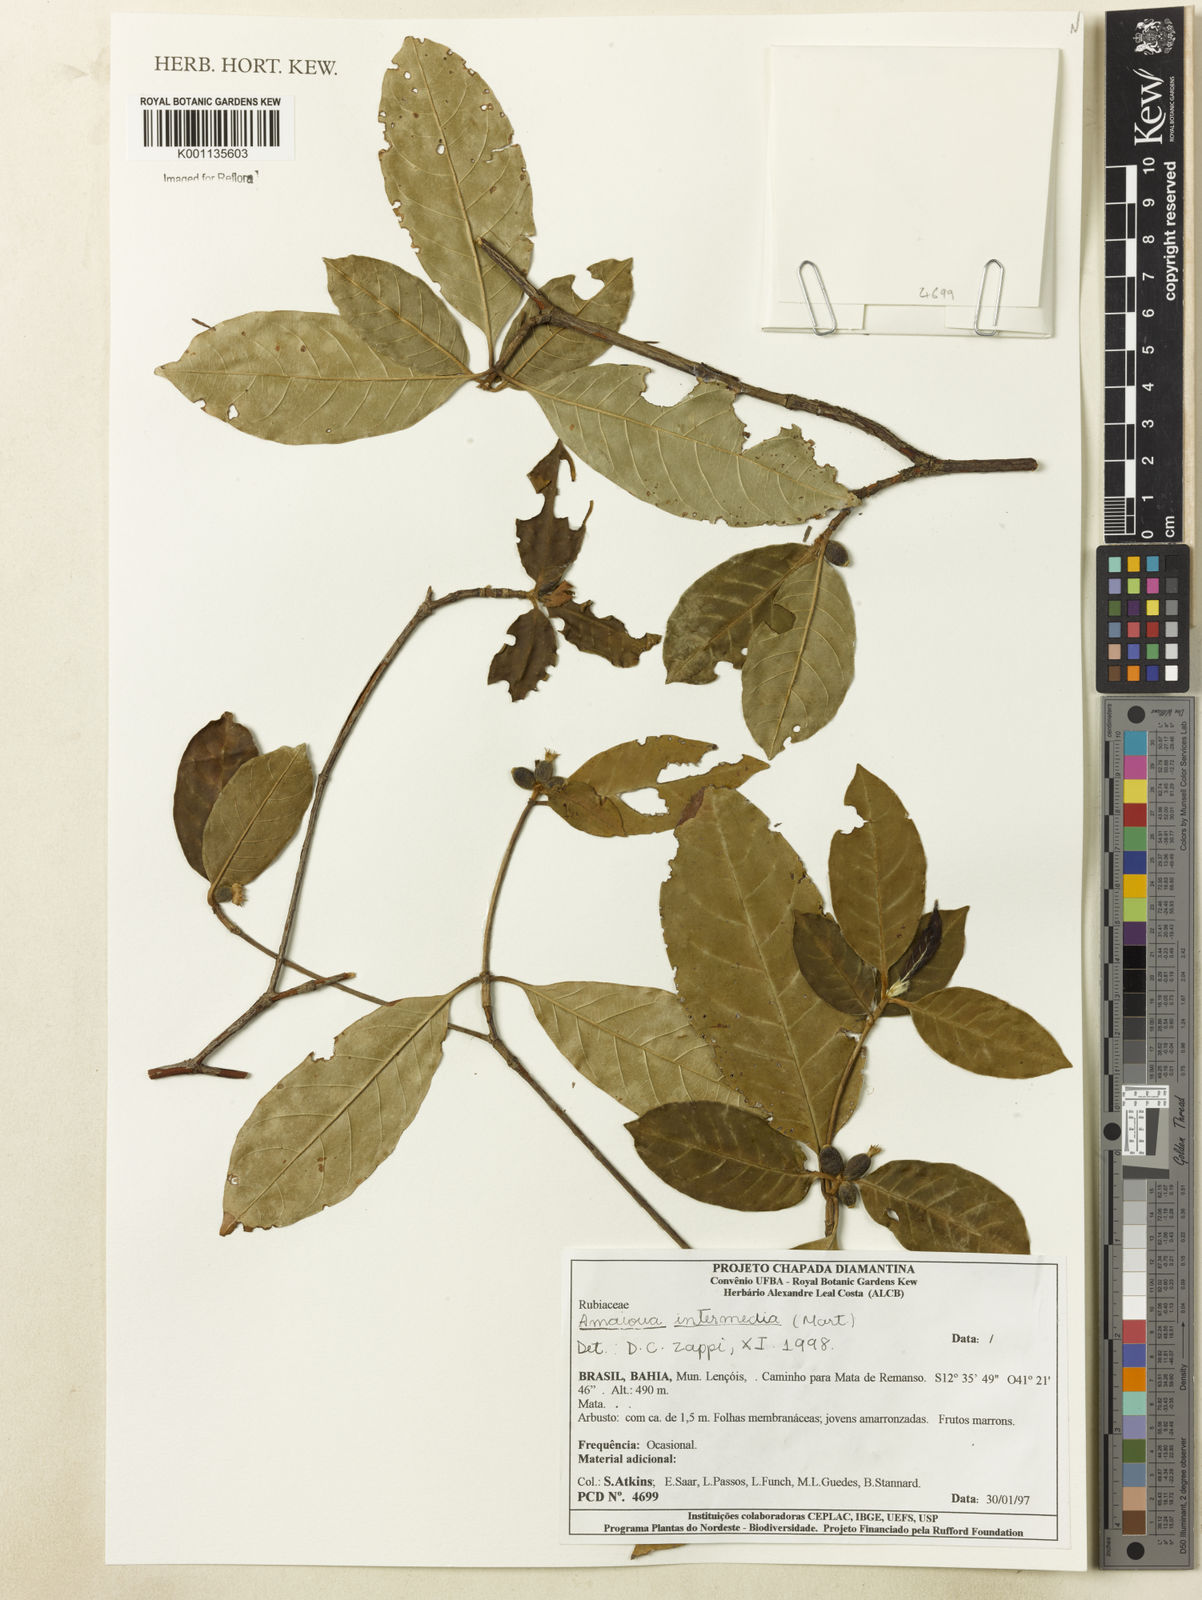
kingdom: Plantae
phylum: Tracheophyta
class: Magnoliopsida
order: Gentianales
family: Rubiaceae
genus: Amaioua
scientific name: Amaioua intermedia
